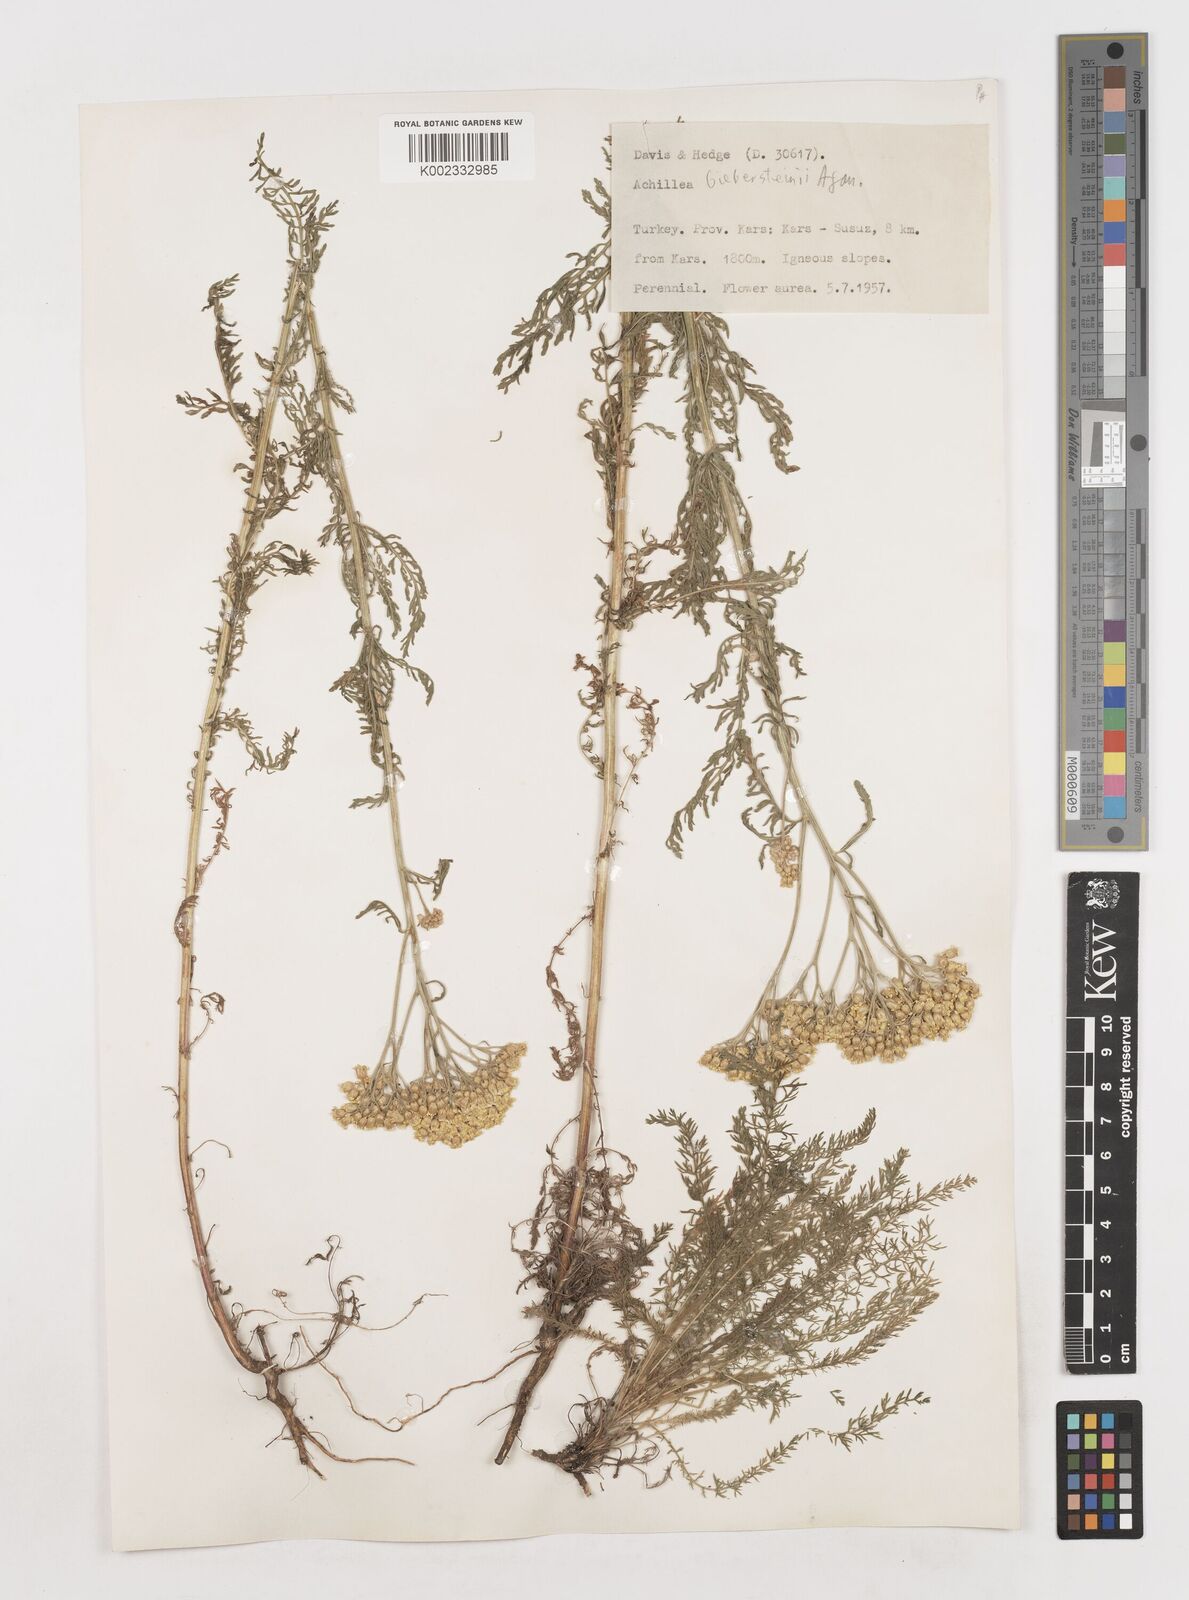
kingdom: Plantae
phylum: Tracheophyta
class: Magnoliopsida
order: Asterales
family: Asteraceae
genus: Achillea
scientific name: Achillea arabica
